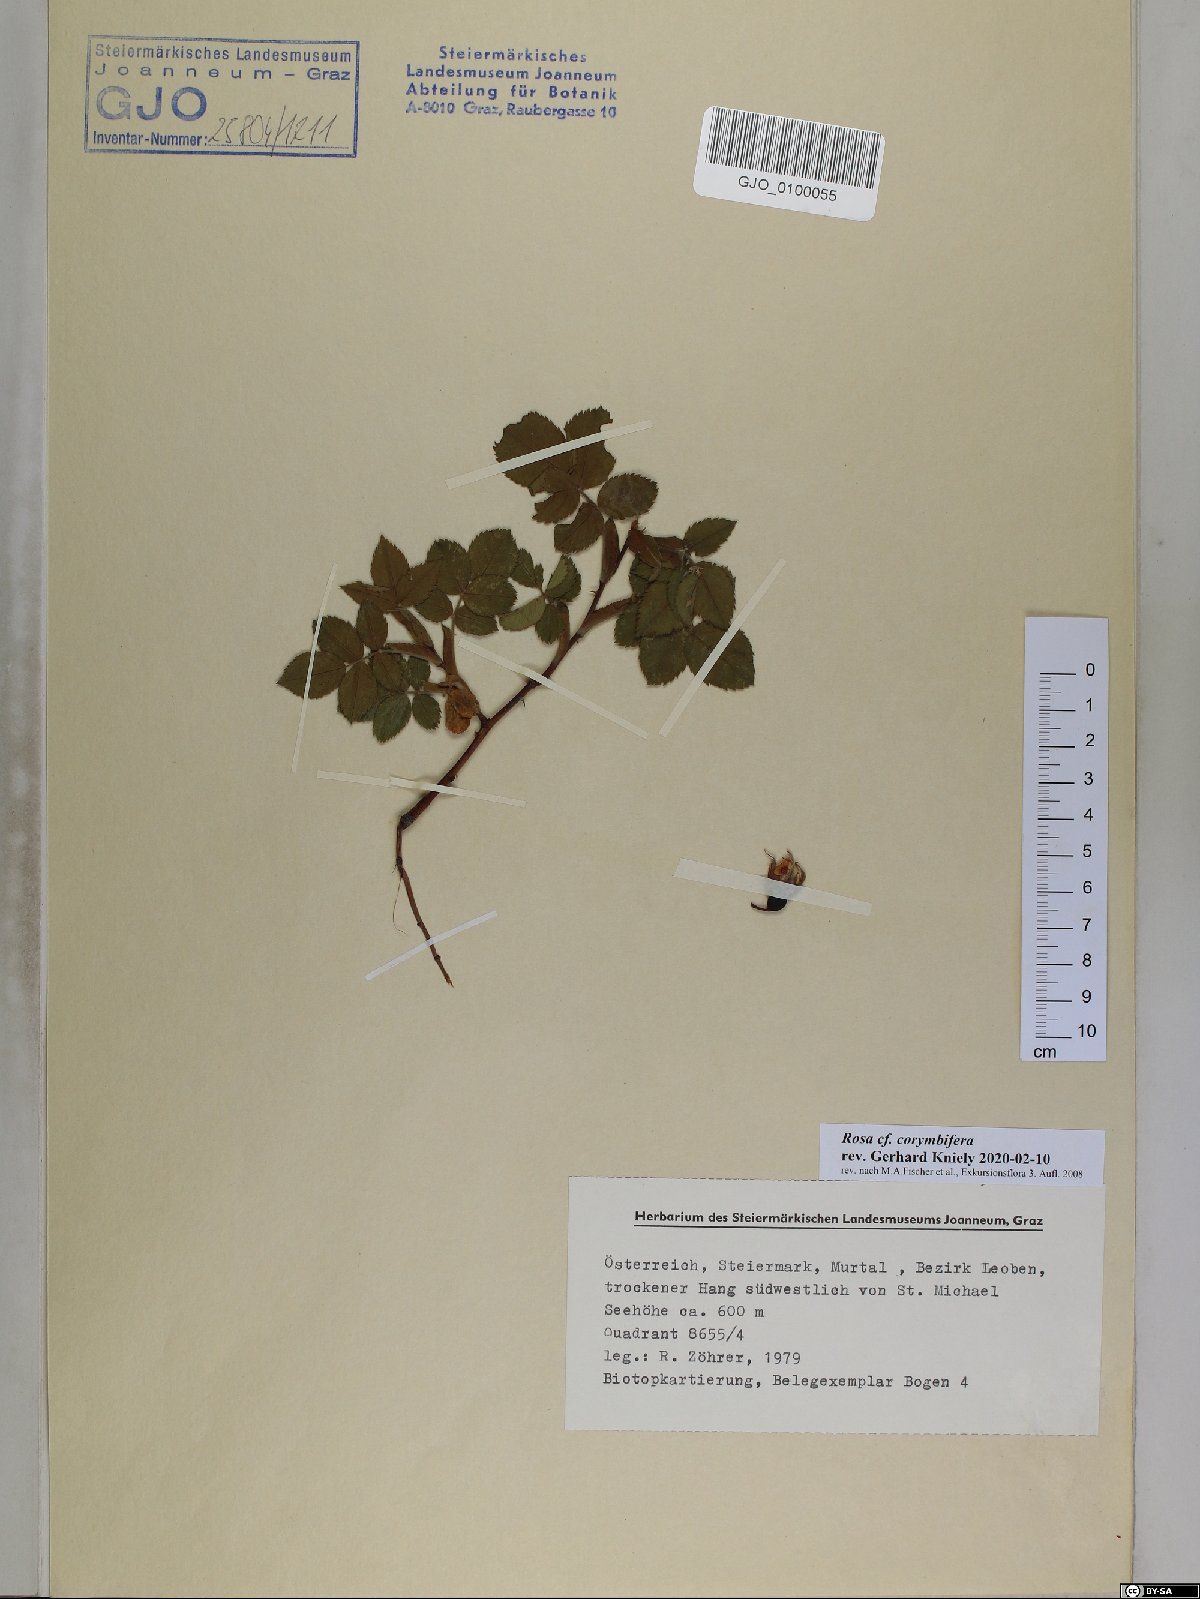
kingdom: Plantae
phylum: Tracheophyta
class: Magnoliopsida
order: Rosales
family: Rosaceae
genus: Rosa
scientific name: Rosa corymbifera
